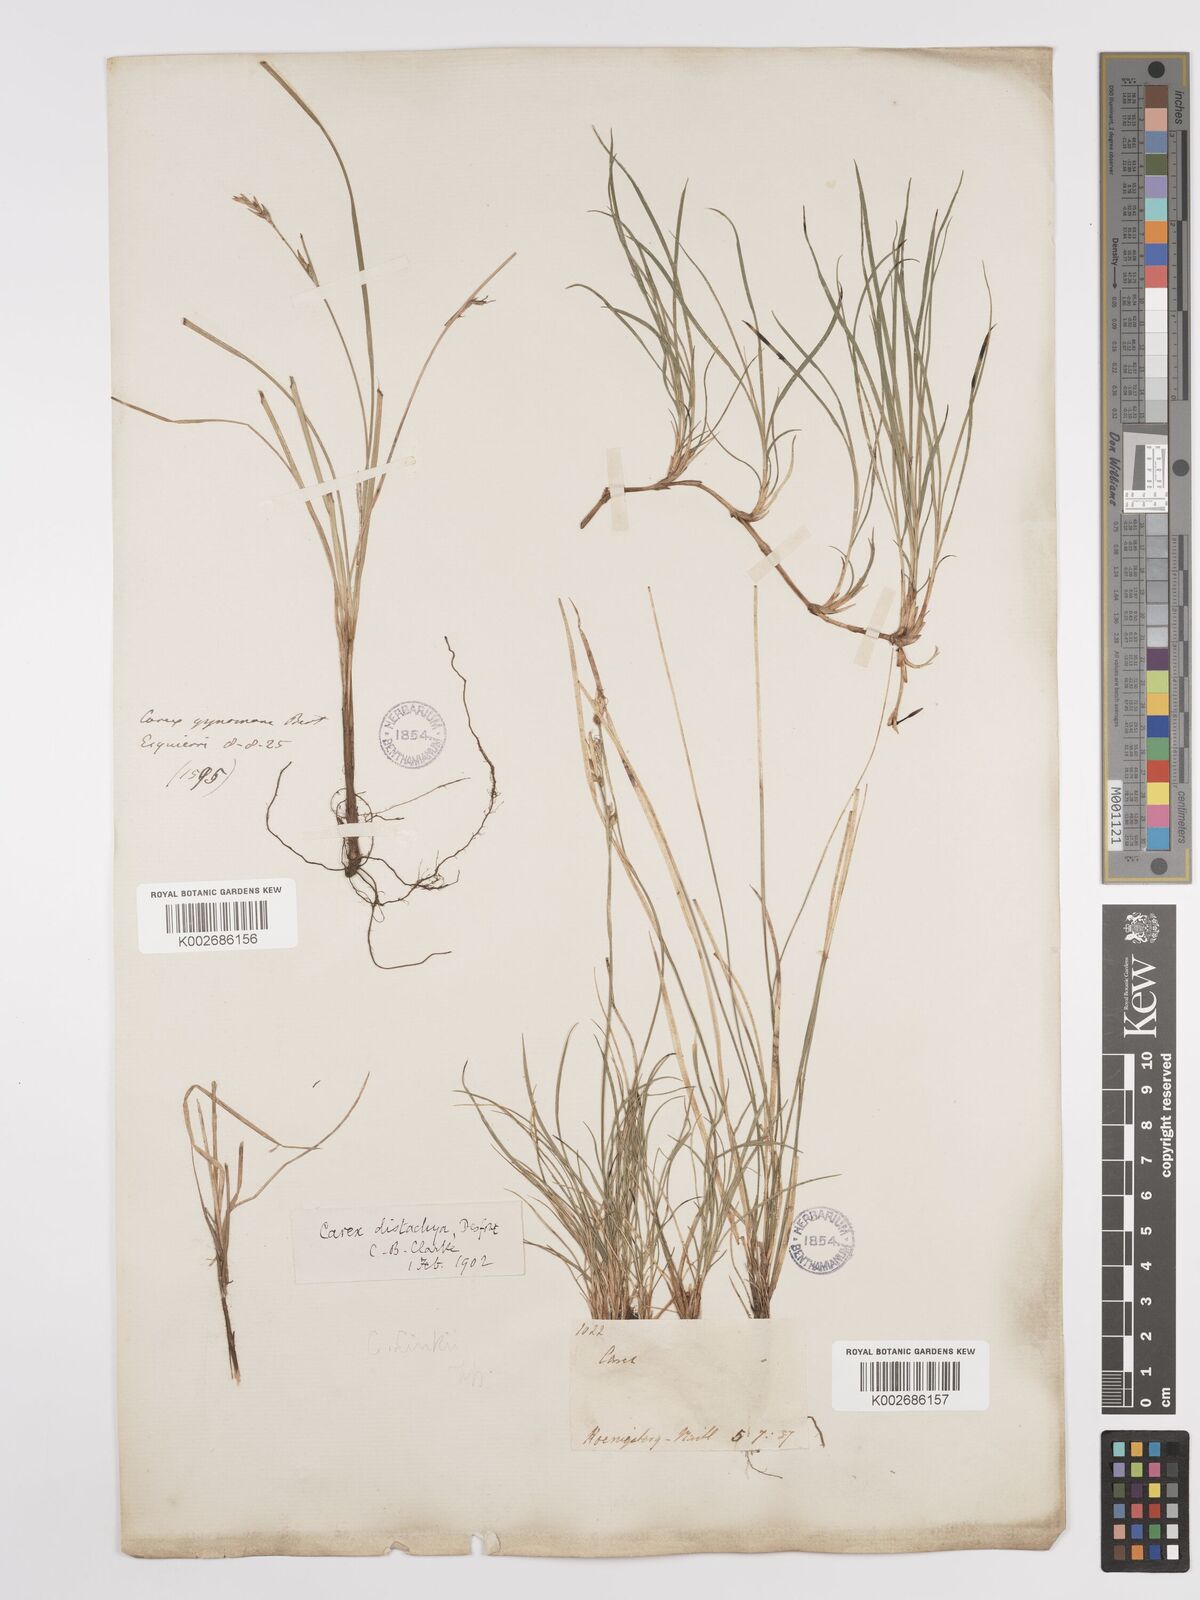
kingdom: Plantae
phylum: Tracheophyta
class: Liliopsida
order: Poales
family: Cyperaceae
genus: Carex
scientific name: Carex distachya
